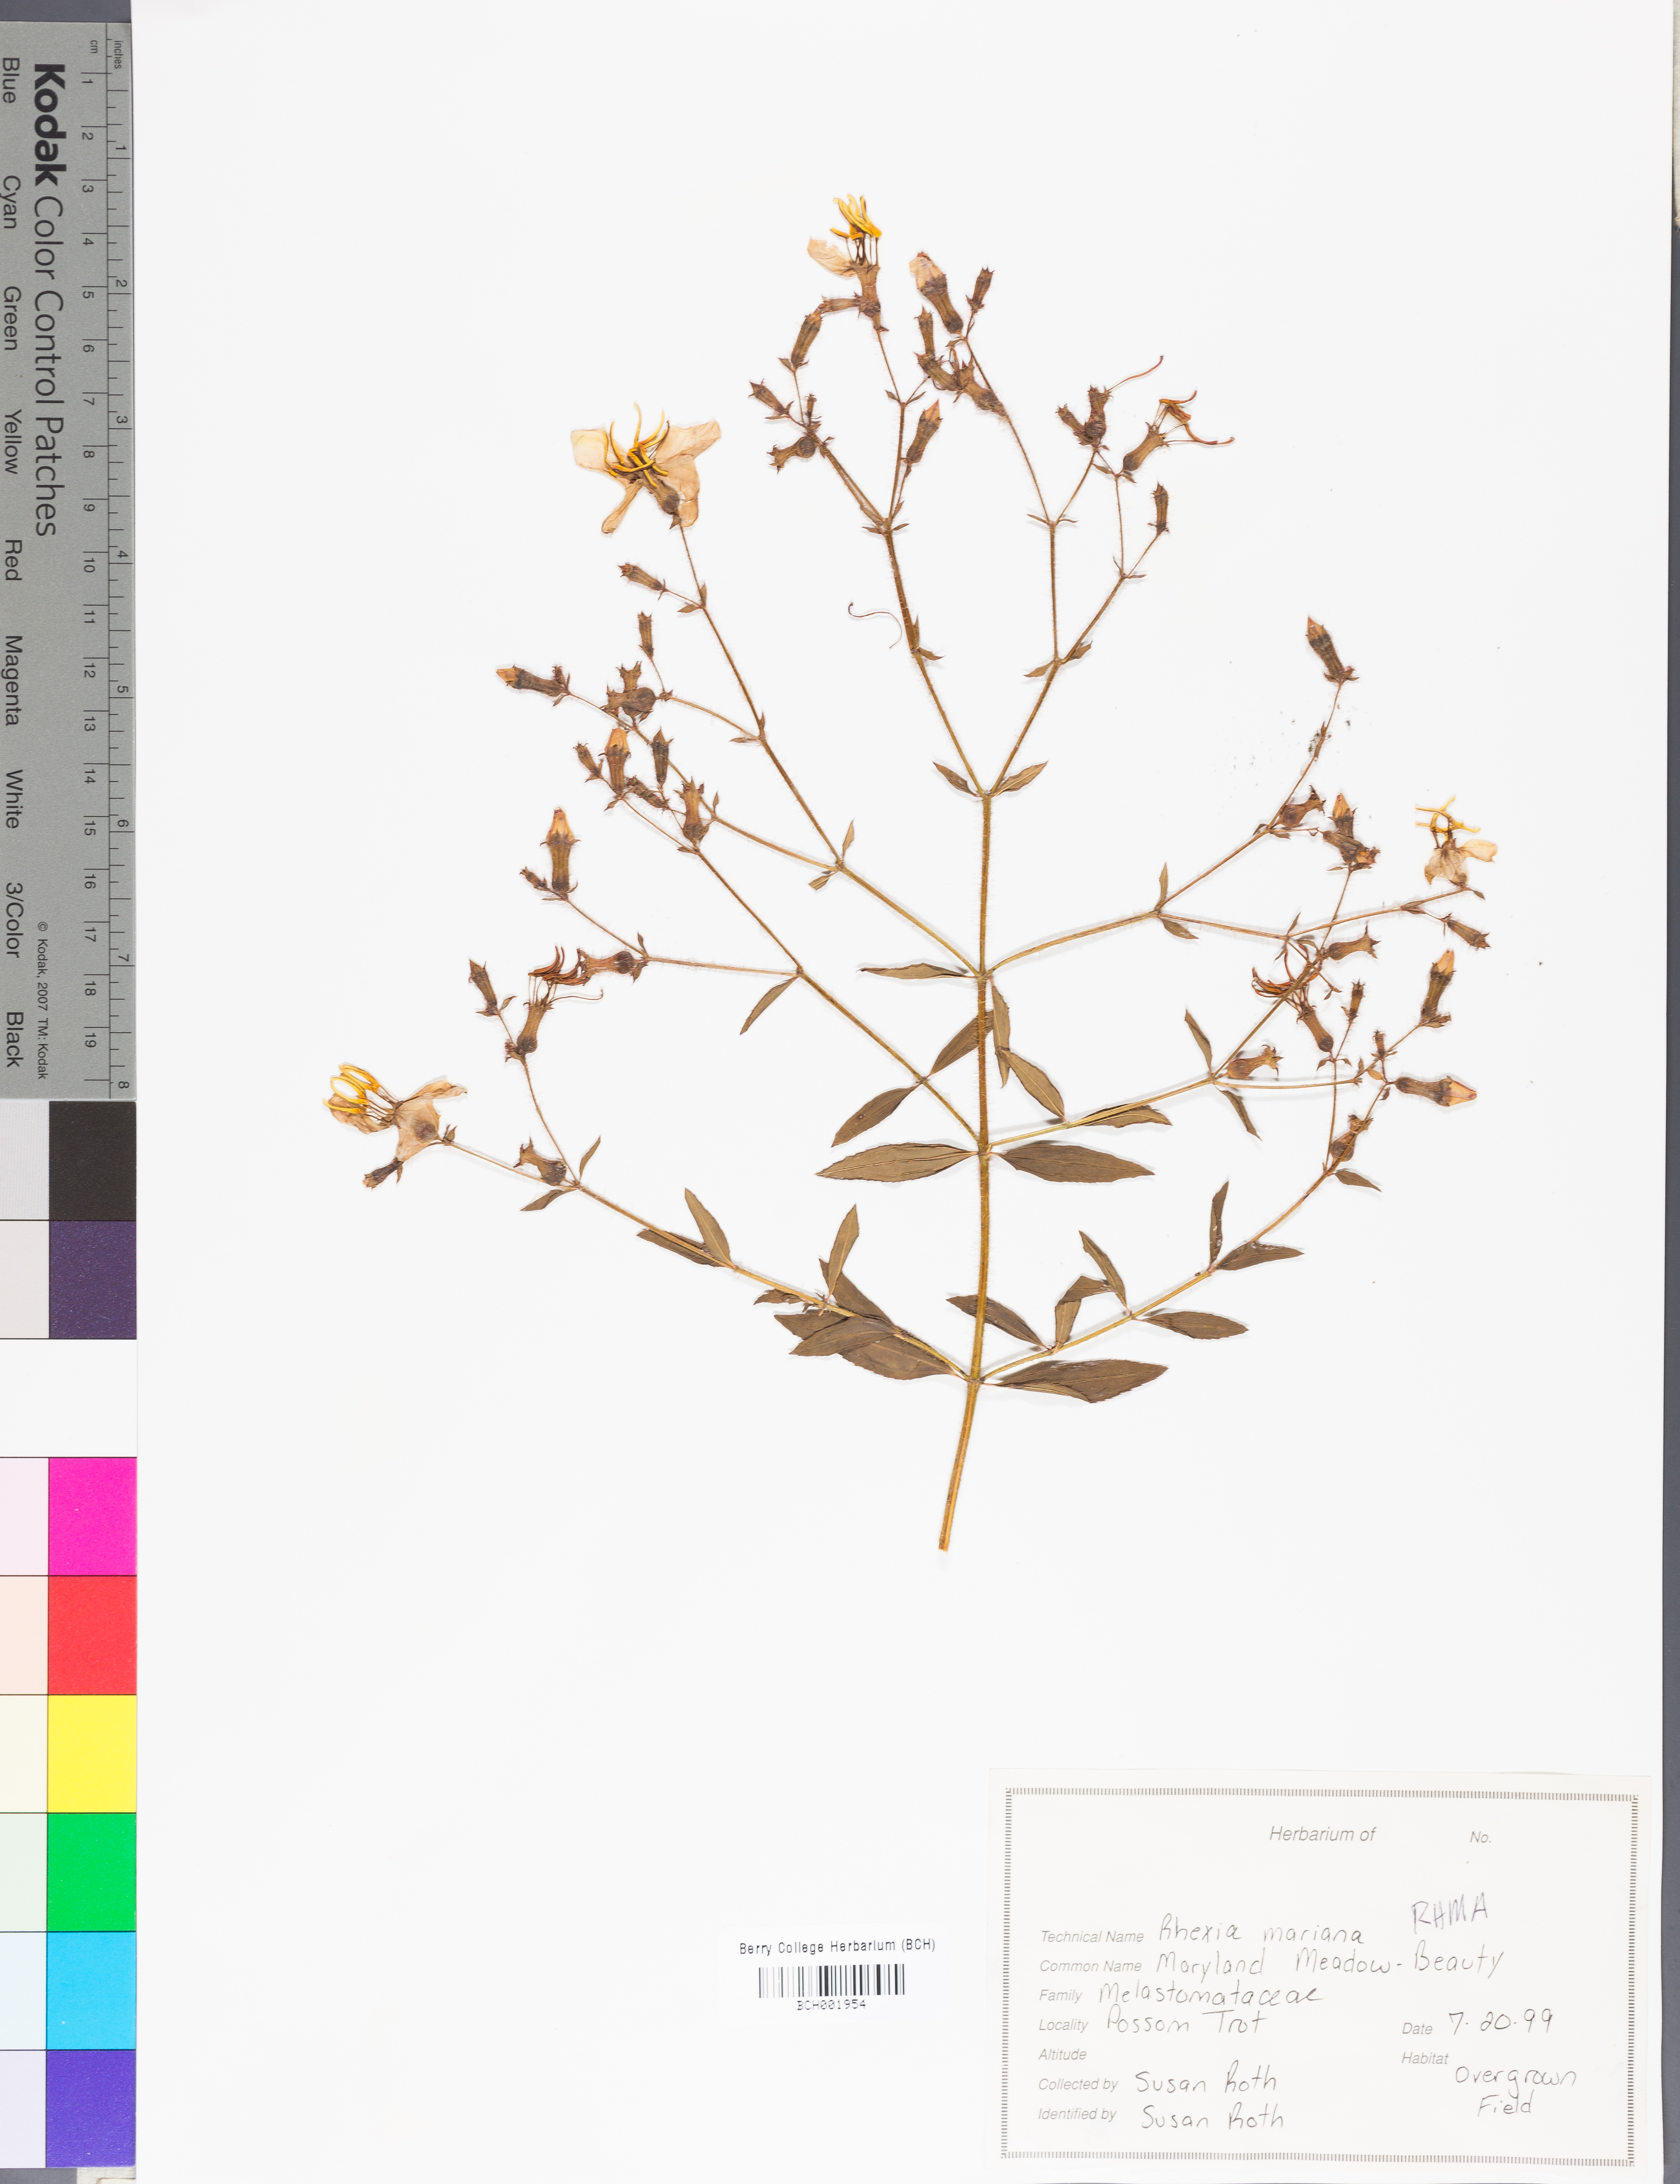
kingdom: Plantae
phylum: Tracheophyta
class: Magnoliopsida
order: Myrtales
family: Melastomataceae
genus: Rhexia
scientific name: Rhexia mariana
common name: Dull meadow-pitcher
